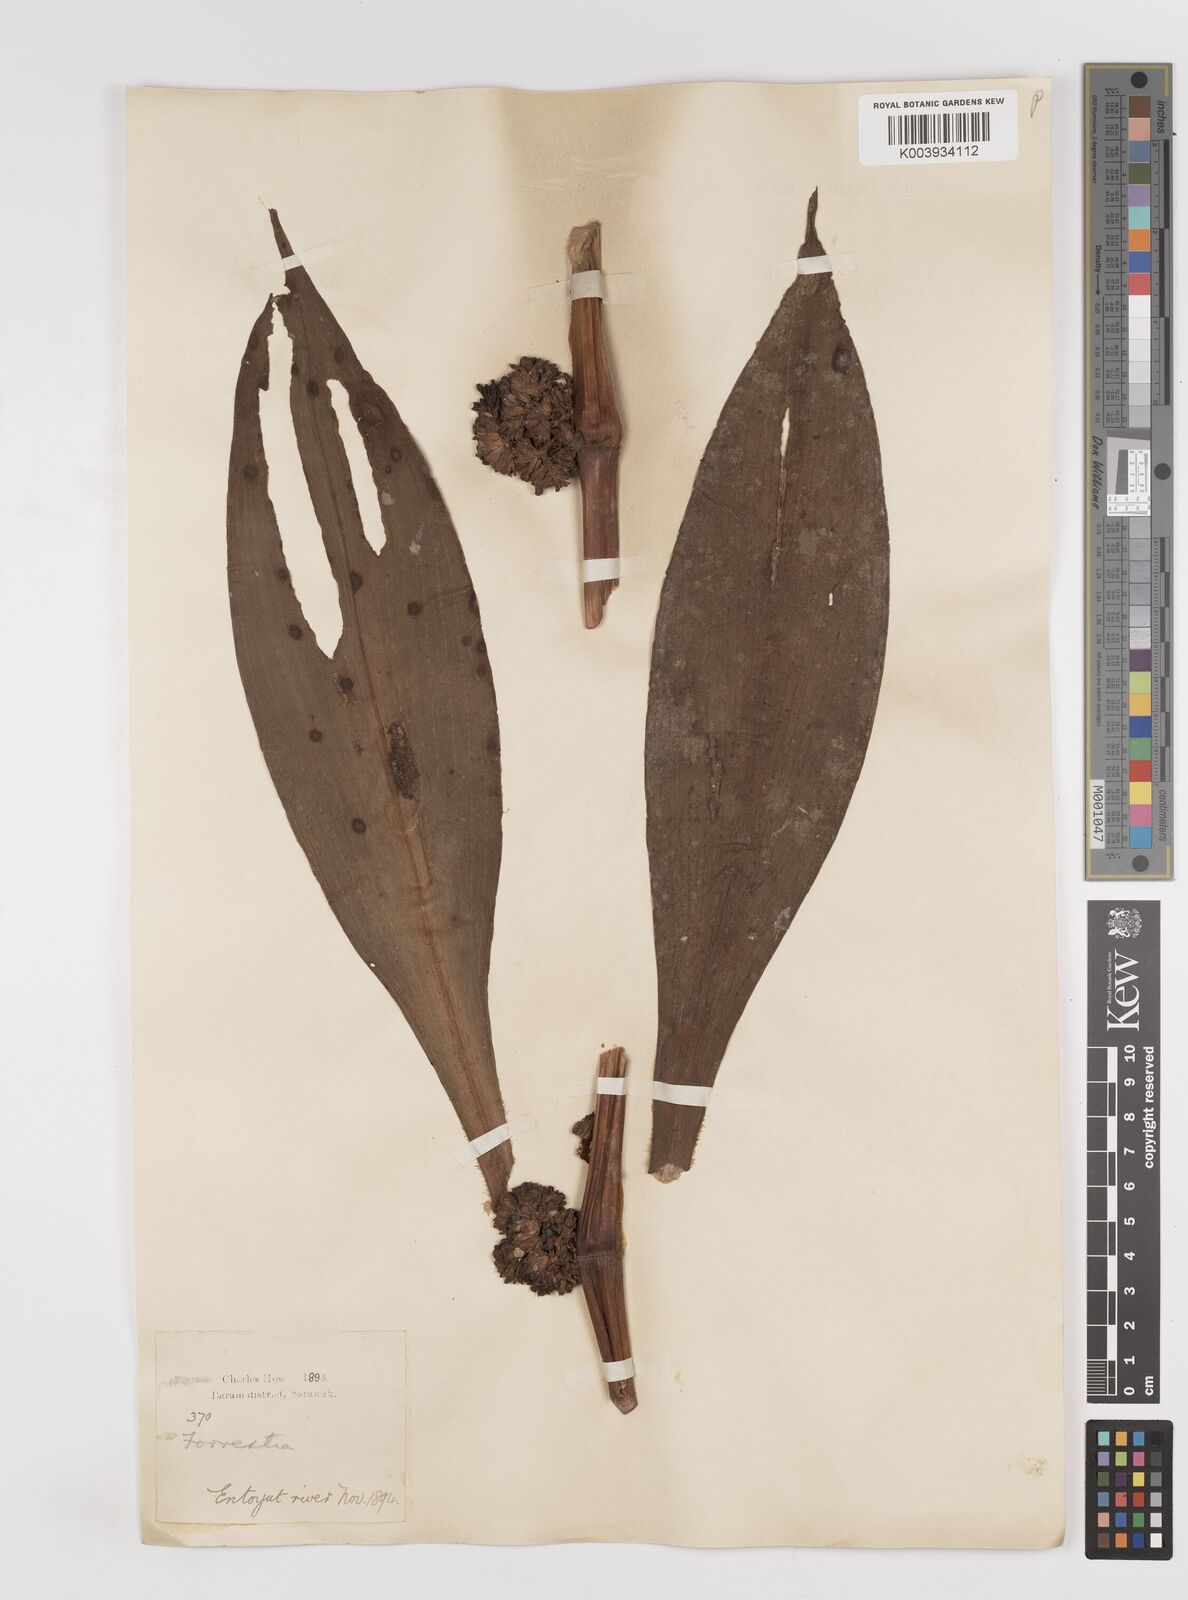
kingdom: Plantae
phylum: Tracheophyta
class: Liliopsida
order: Commelinales
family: Commelinaceae
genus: Amischotolype
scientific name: Amischotolype
